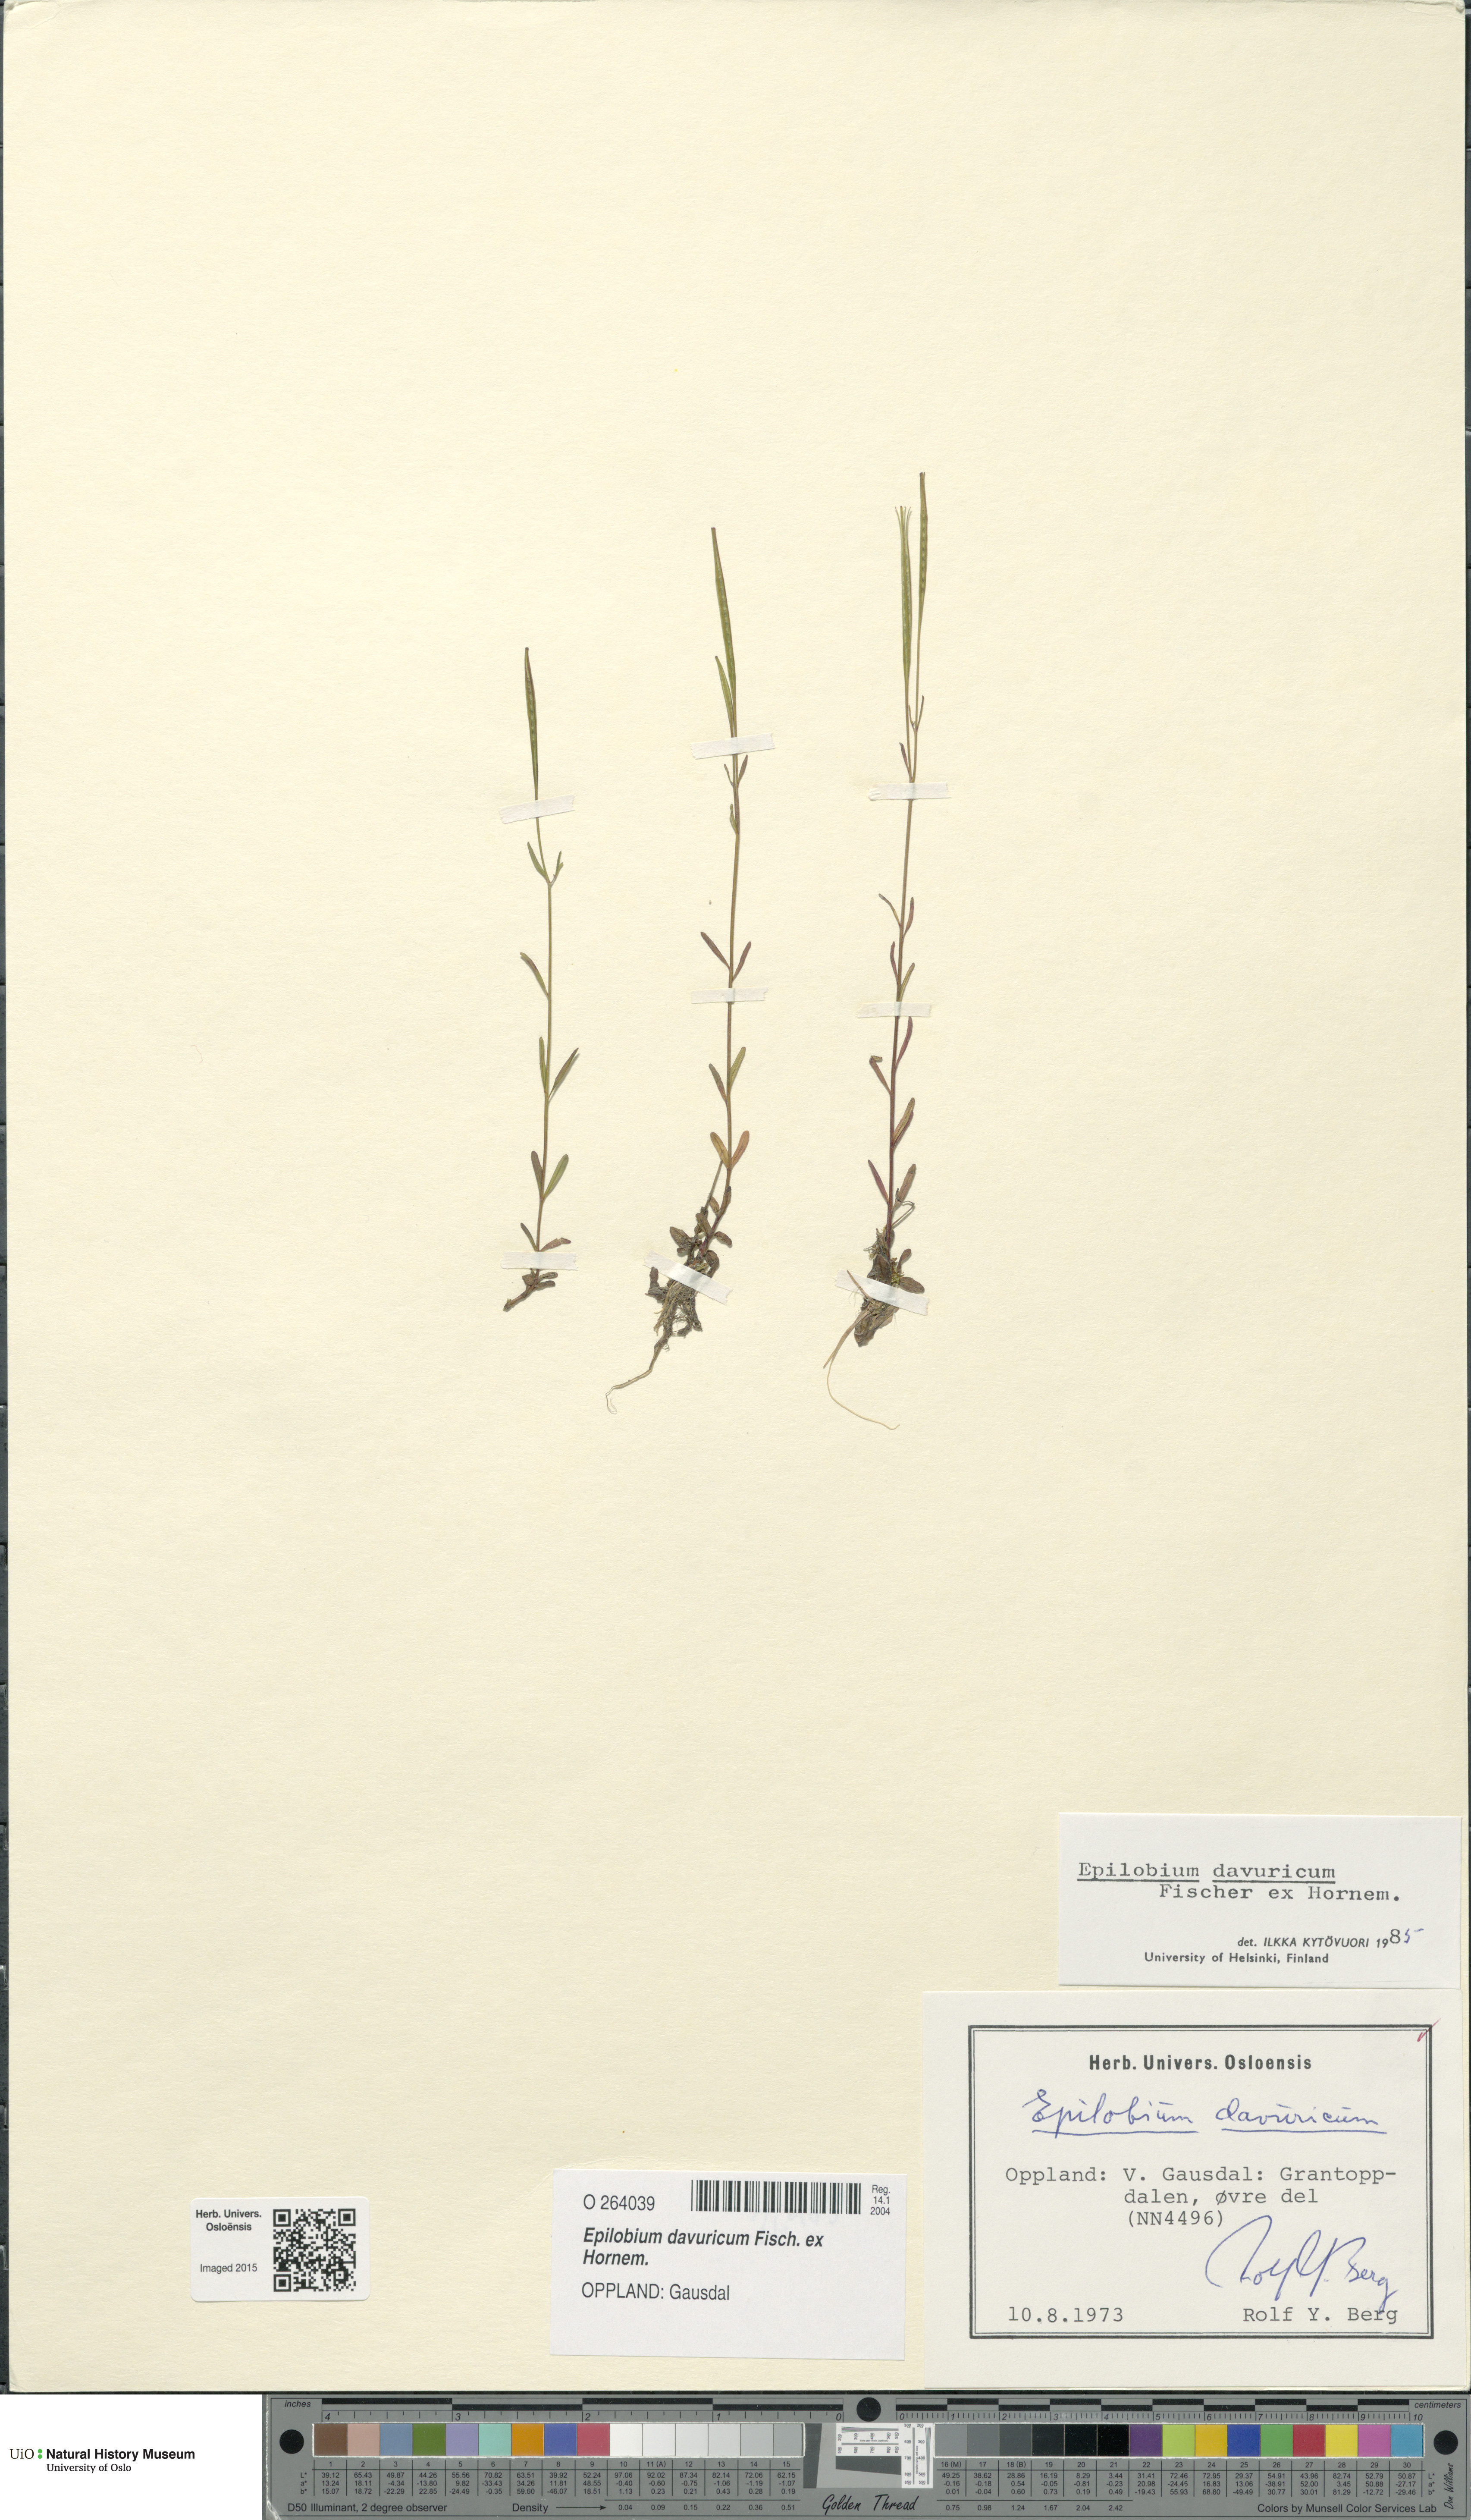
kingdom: Plantae
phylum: Tracheophyta
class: Magnoliopsida
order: Myrtales
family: Onagraceae
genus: Epilobium
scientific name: Epilobium davuricum
